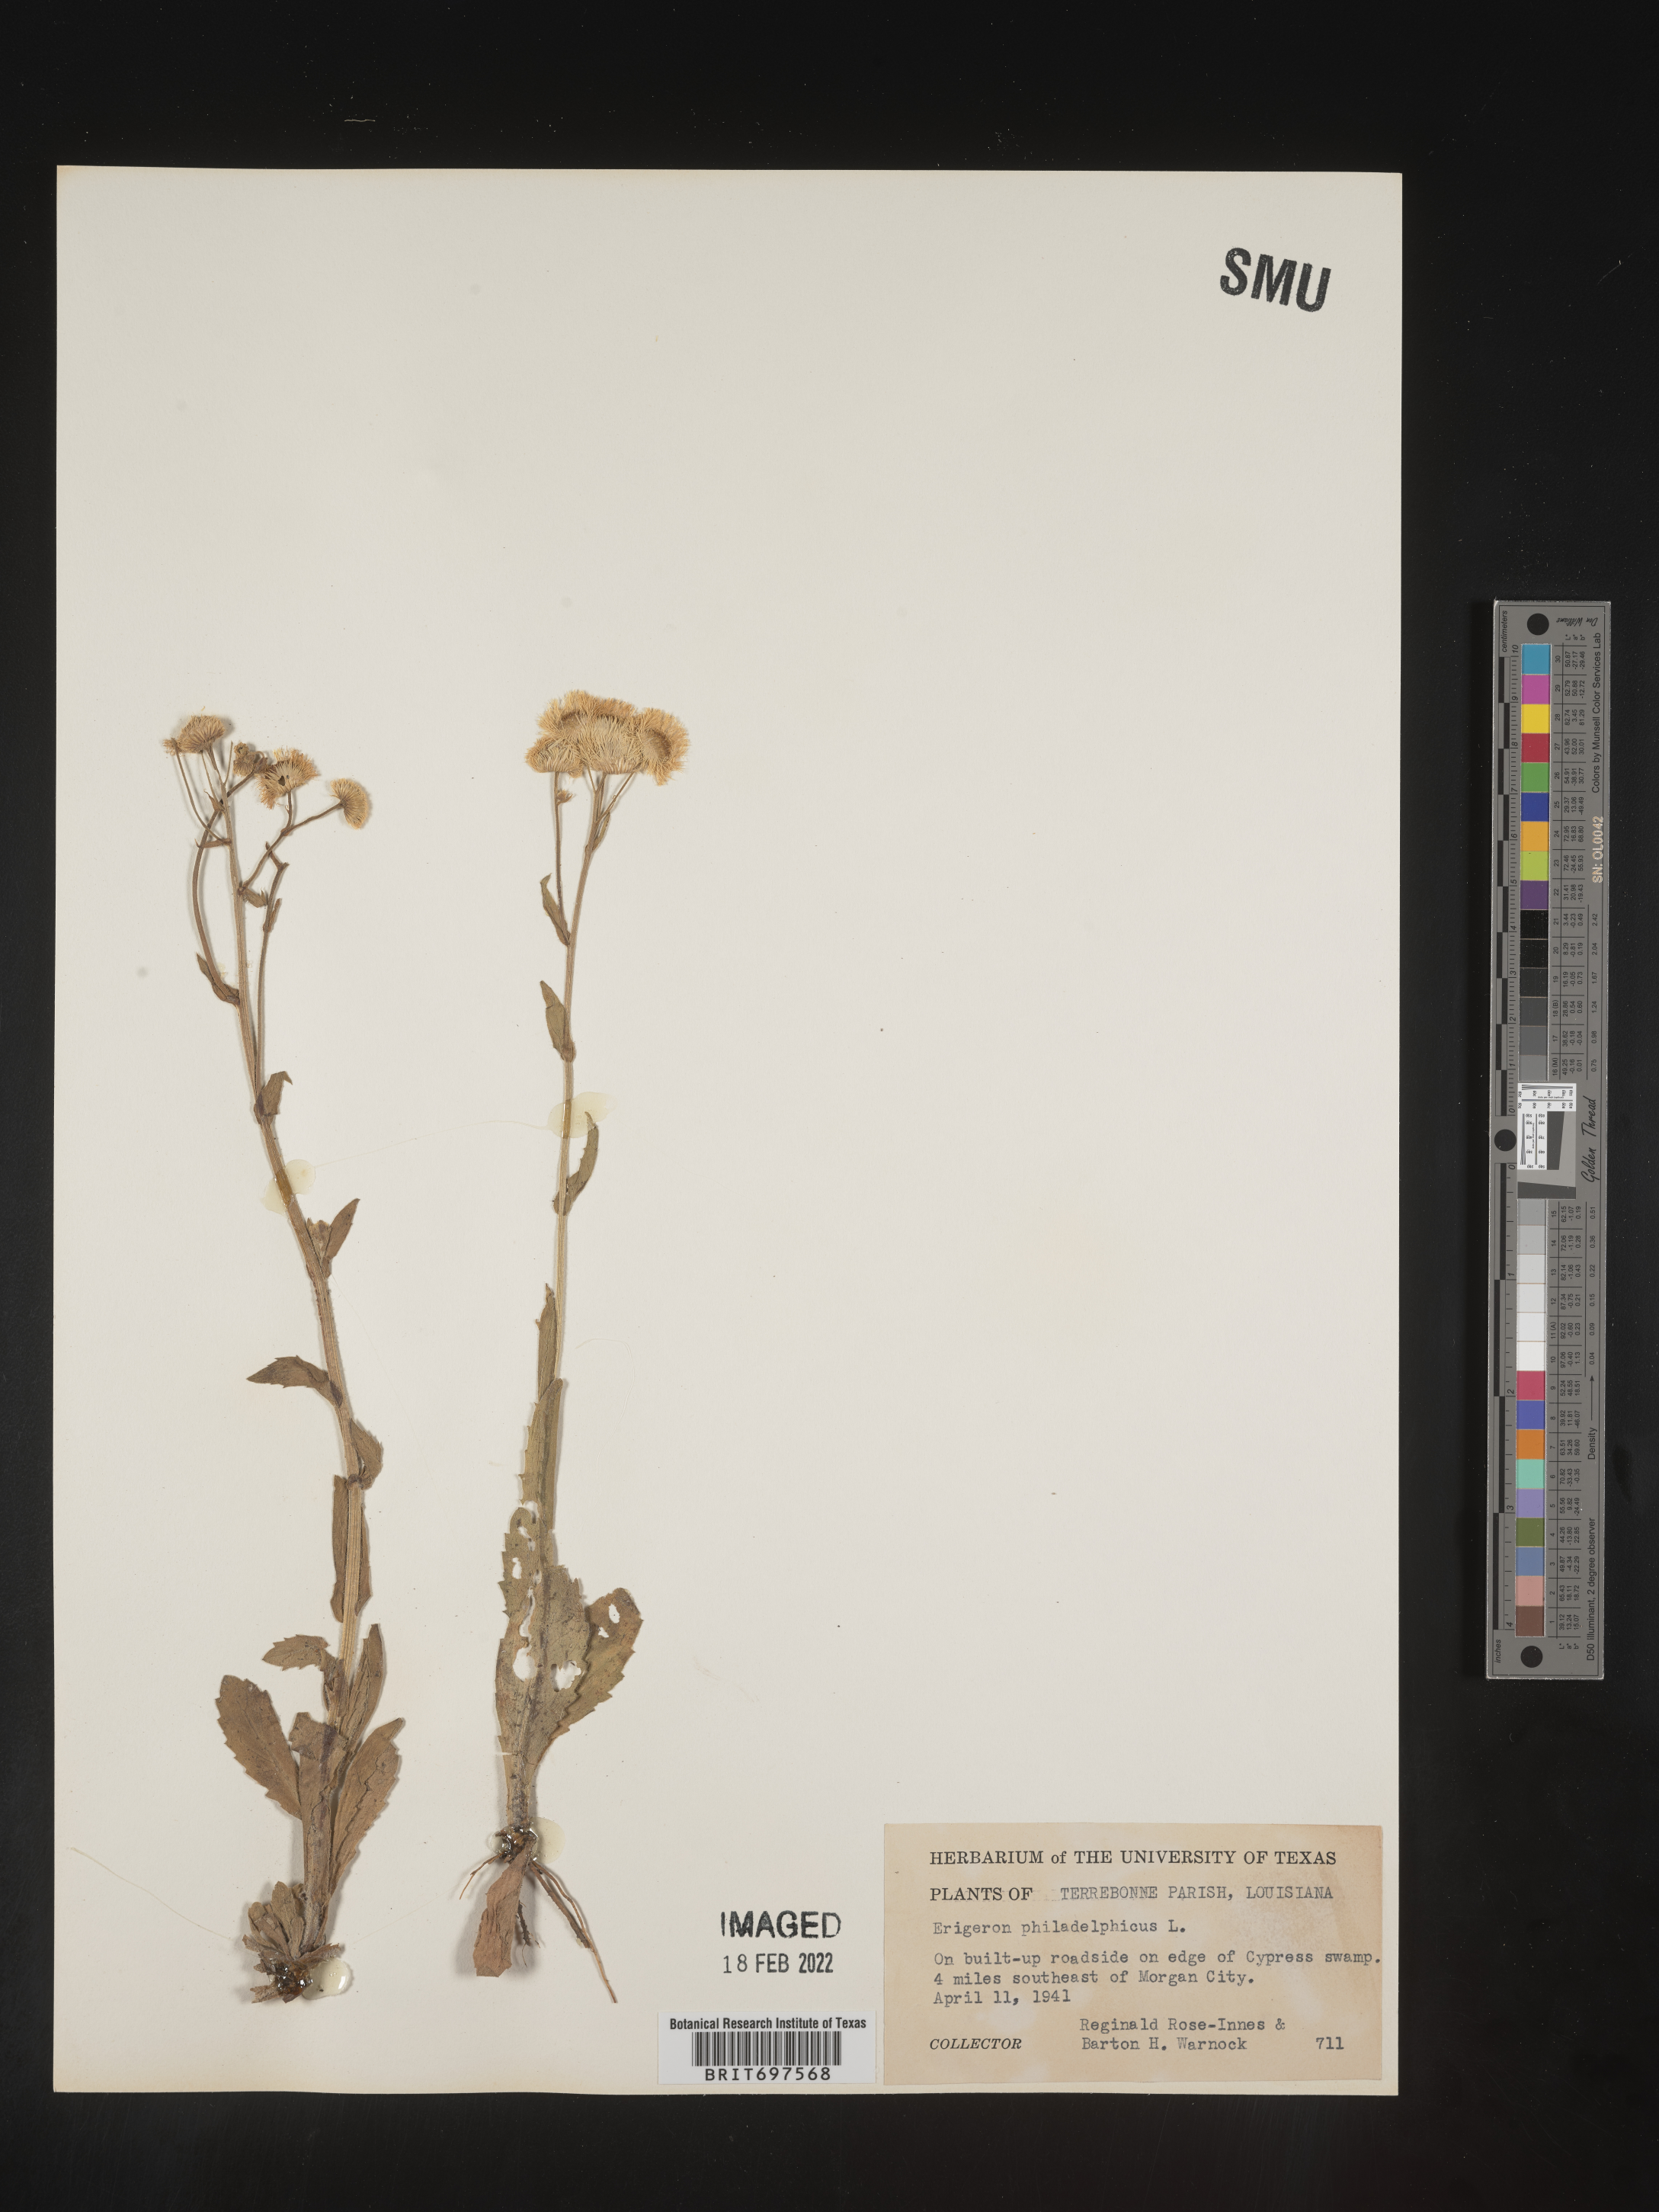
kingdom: Plantae
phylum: Tracheophyta
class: Magnoliopsida
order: Asterales
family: Asteraceae
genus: Erigeron
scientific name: Erigeron philadelphicus
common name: Robin's-plantain
